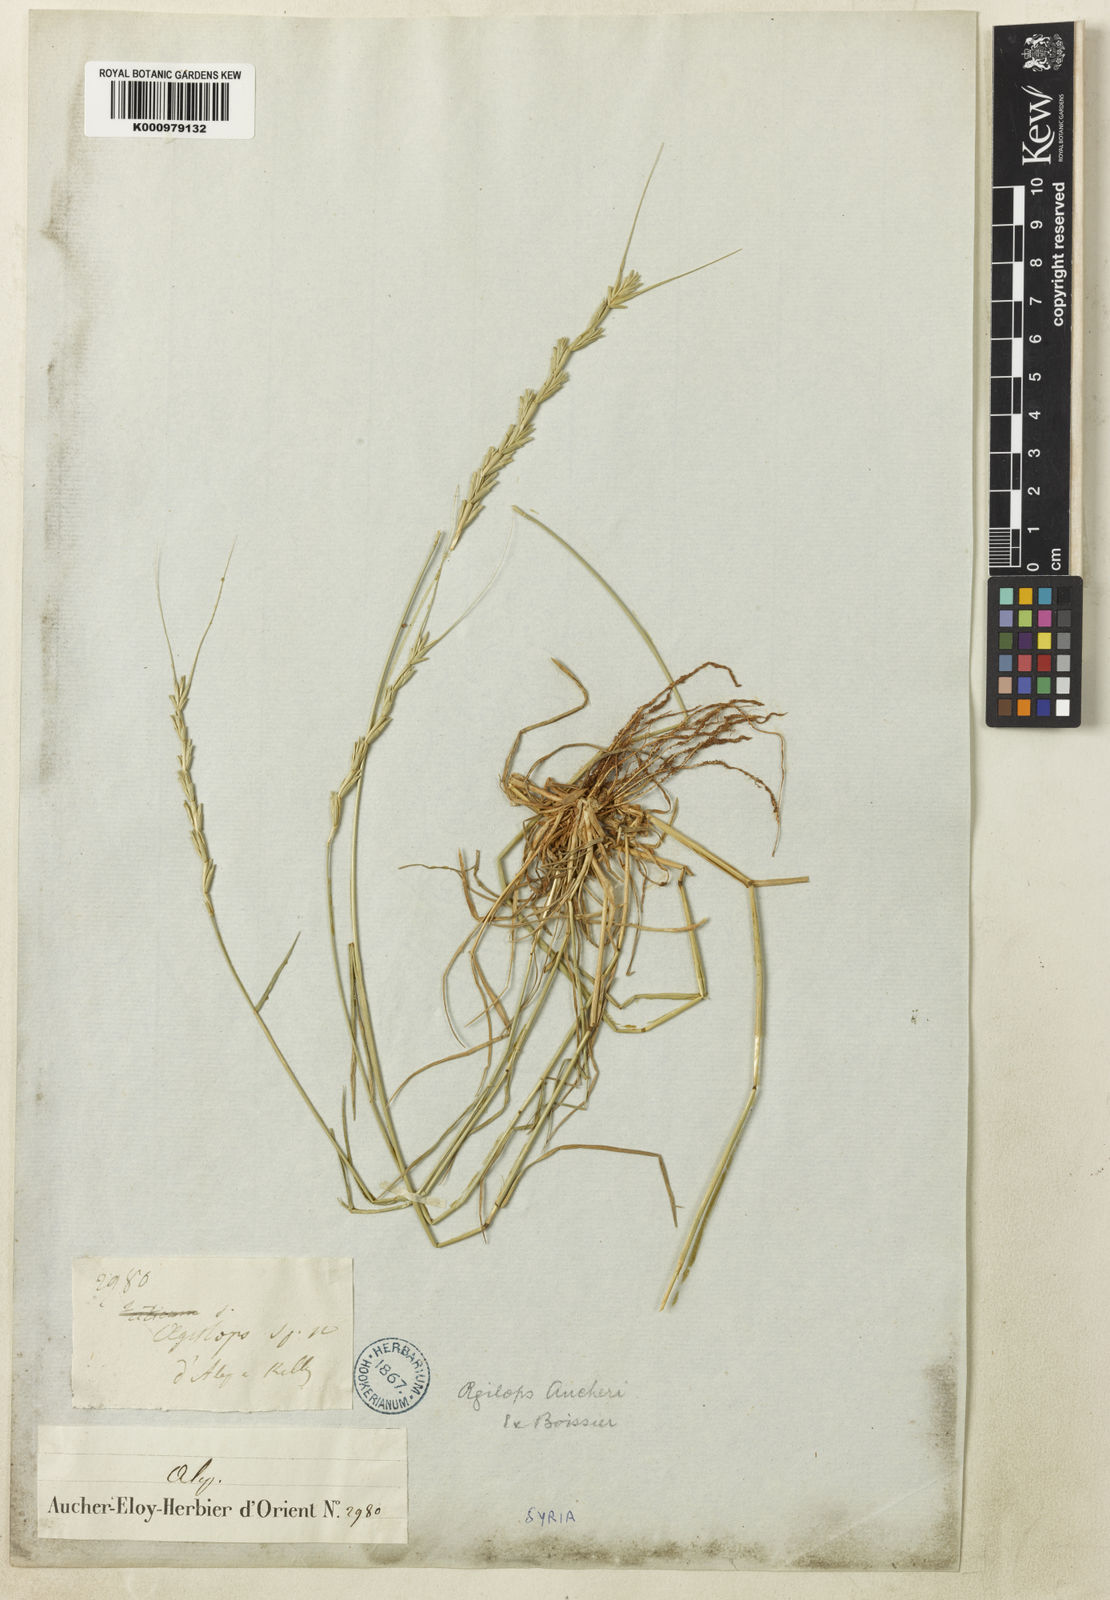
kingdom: Plantae
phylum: Tracheophyta
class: Liliopsida
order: Poales
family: Poaceae
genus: Aegilops
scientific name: Aegilops speltoides
